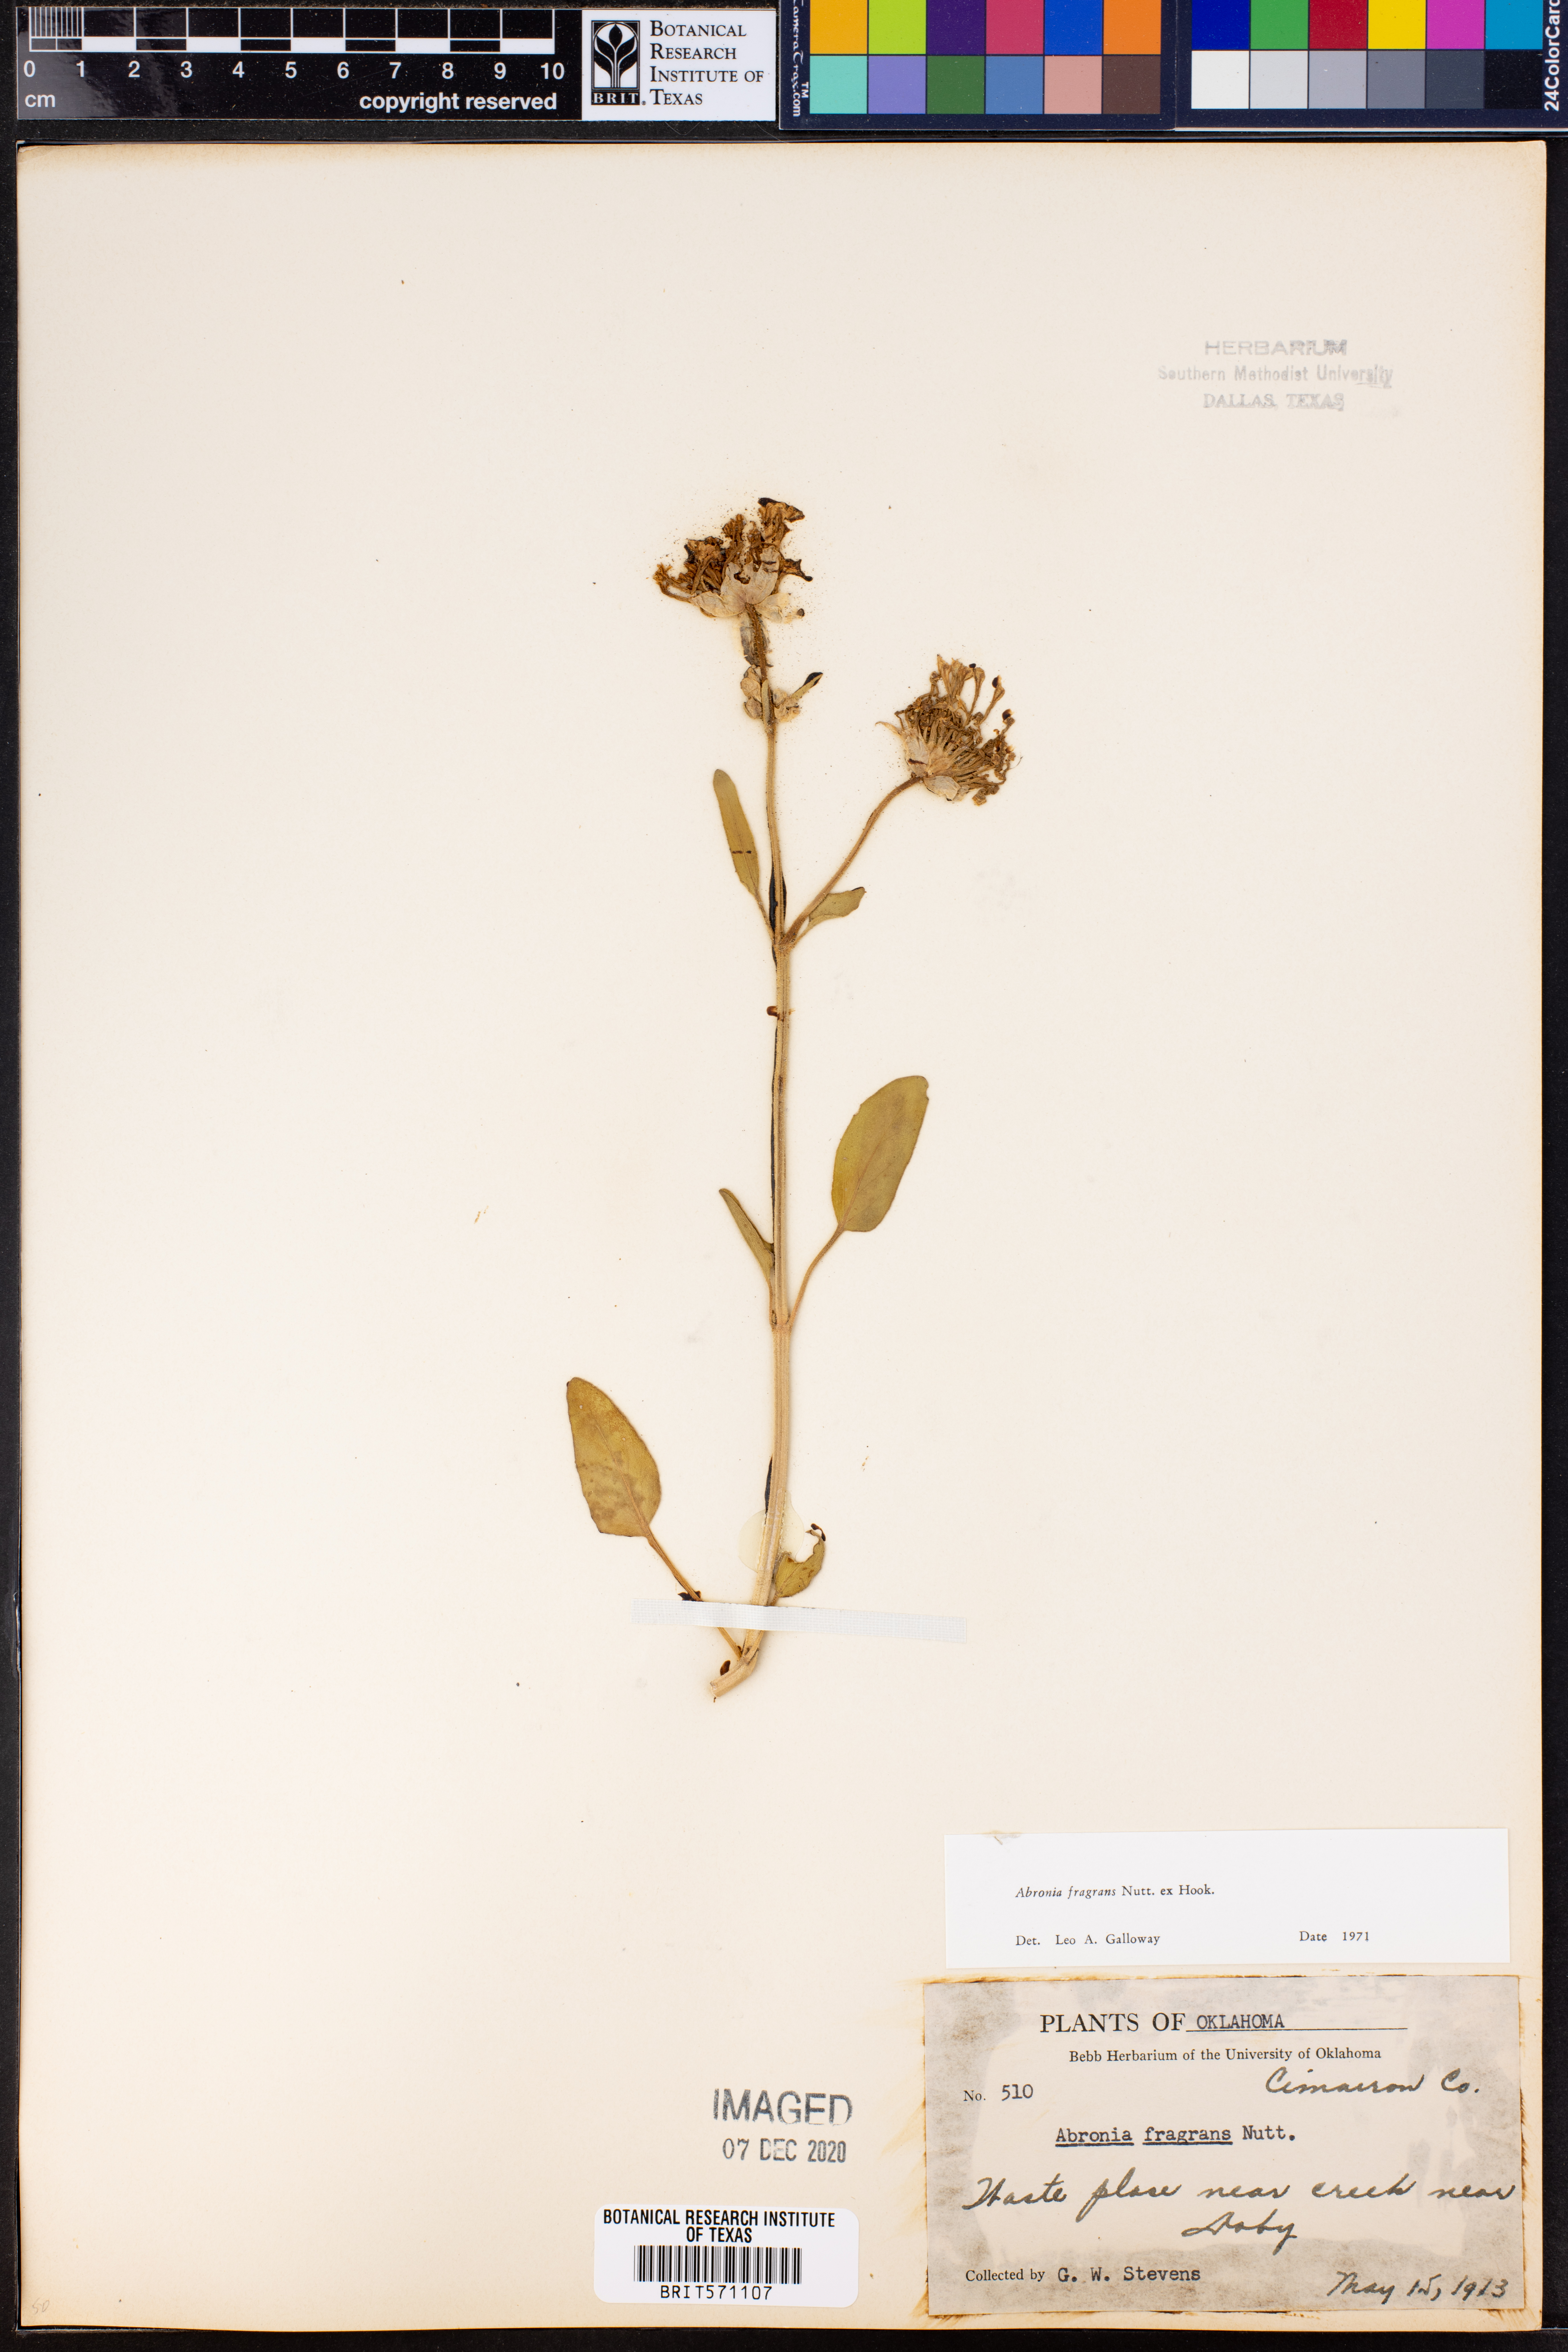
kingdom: Plantae
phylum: Tracheophyta
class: Magnoliopsida
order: Caryophyllales
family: Nyctaginaceae
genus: Abronia
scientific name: Abronia fragrans
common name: Fragrant sand-verbena
